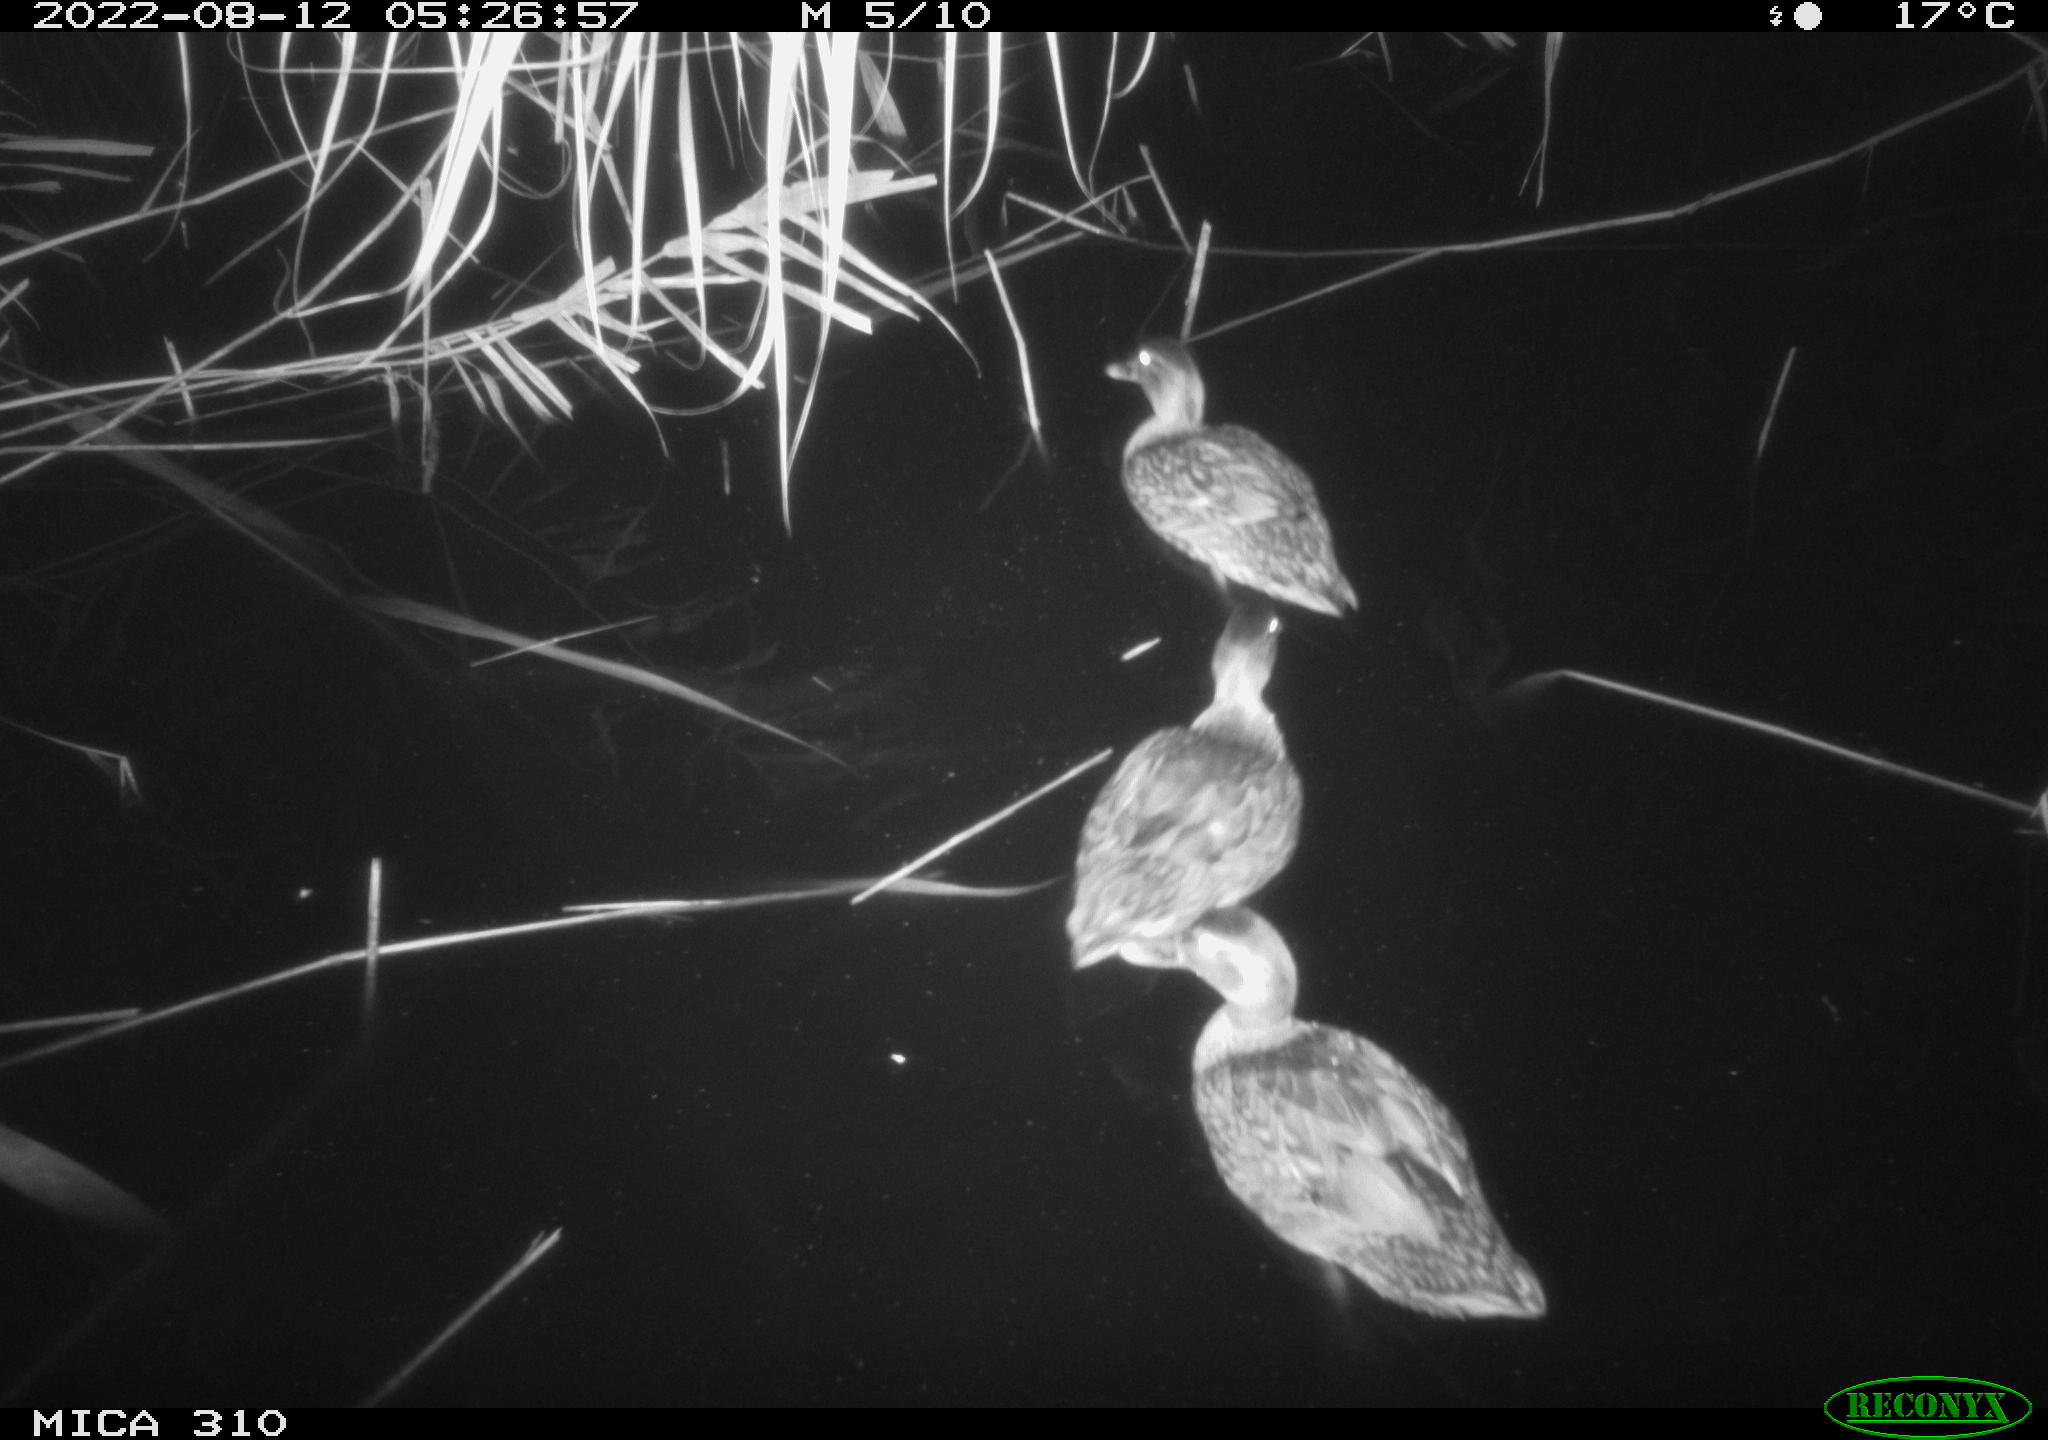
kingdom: Animalia
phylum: Chordata
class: Aves
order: Gruiformes
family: Rallidae
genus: Fulica
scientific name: Fulica atra
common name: Eurasian coot
